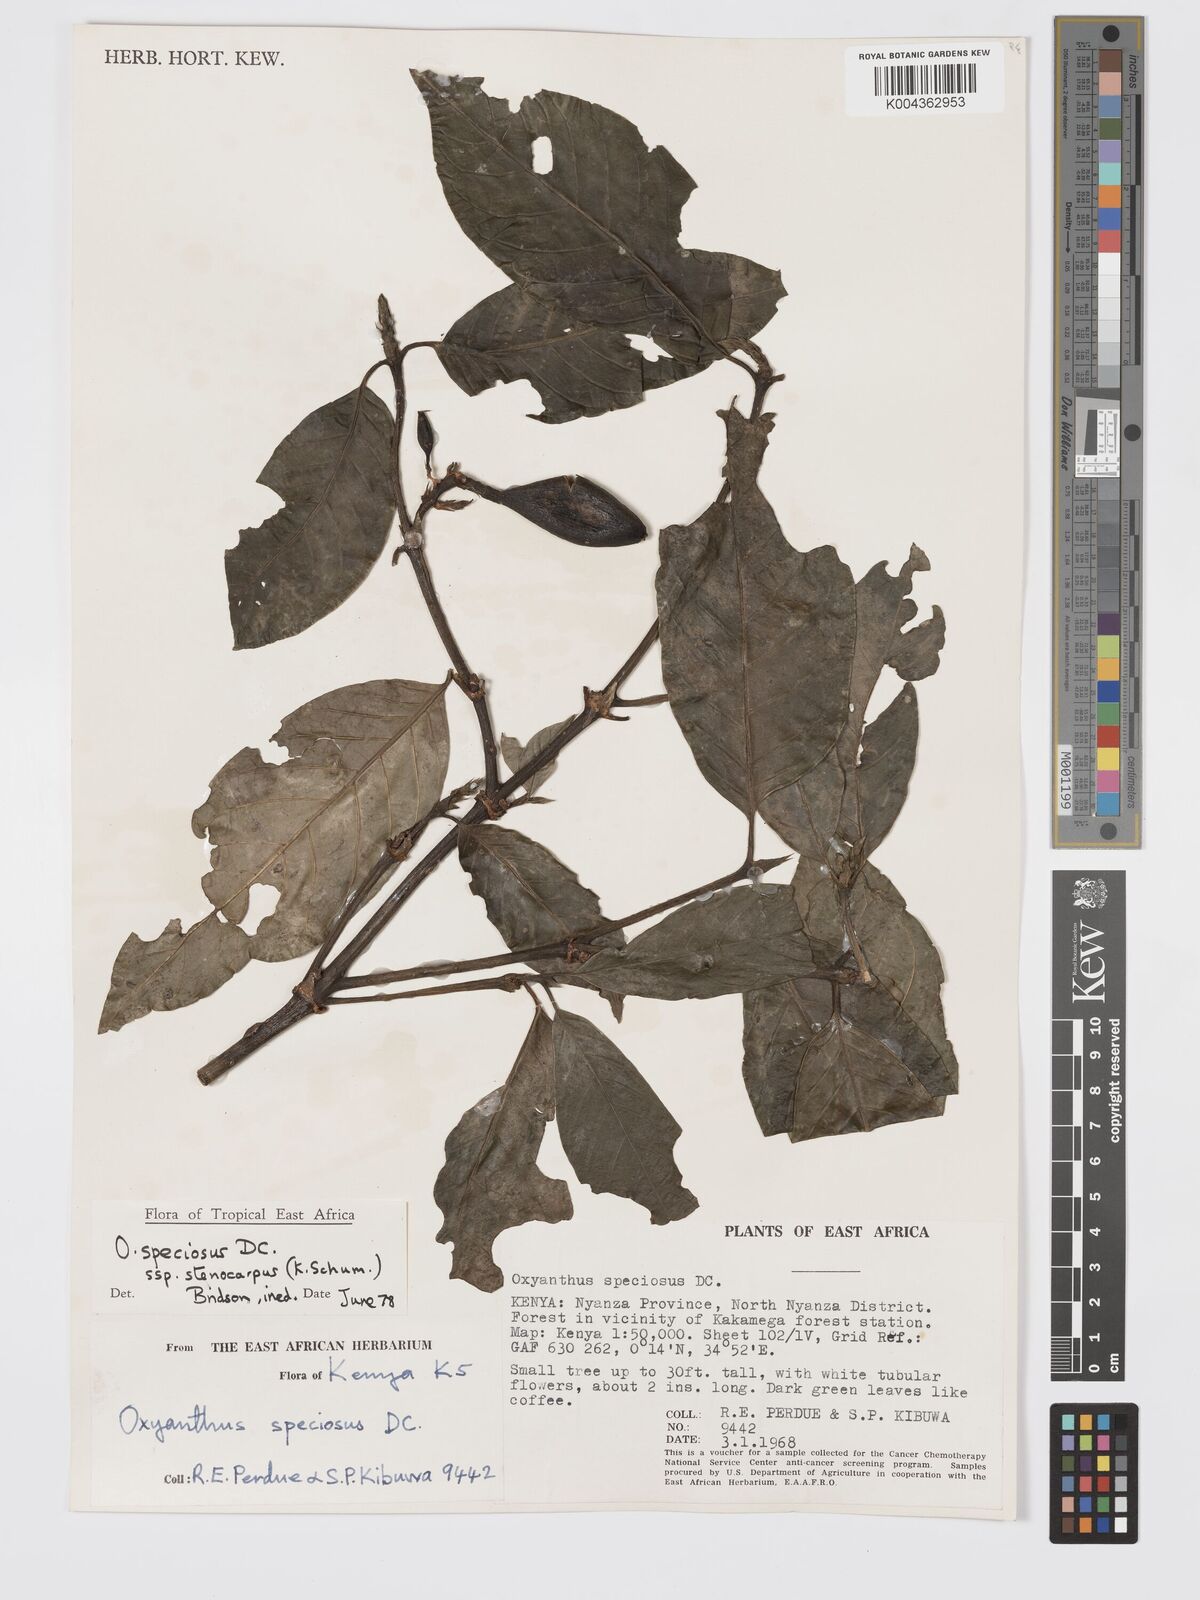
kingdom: Plantae
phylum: Tracheophyta
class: Magnoliopsida
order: Gentianales
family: Rubiaceae
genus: Oxyanthus
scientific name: Oxyanthus speciosus
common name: Whipstick loquat
